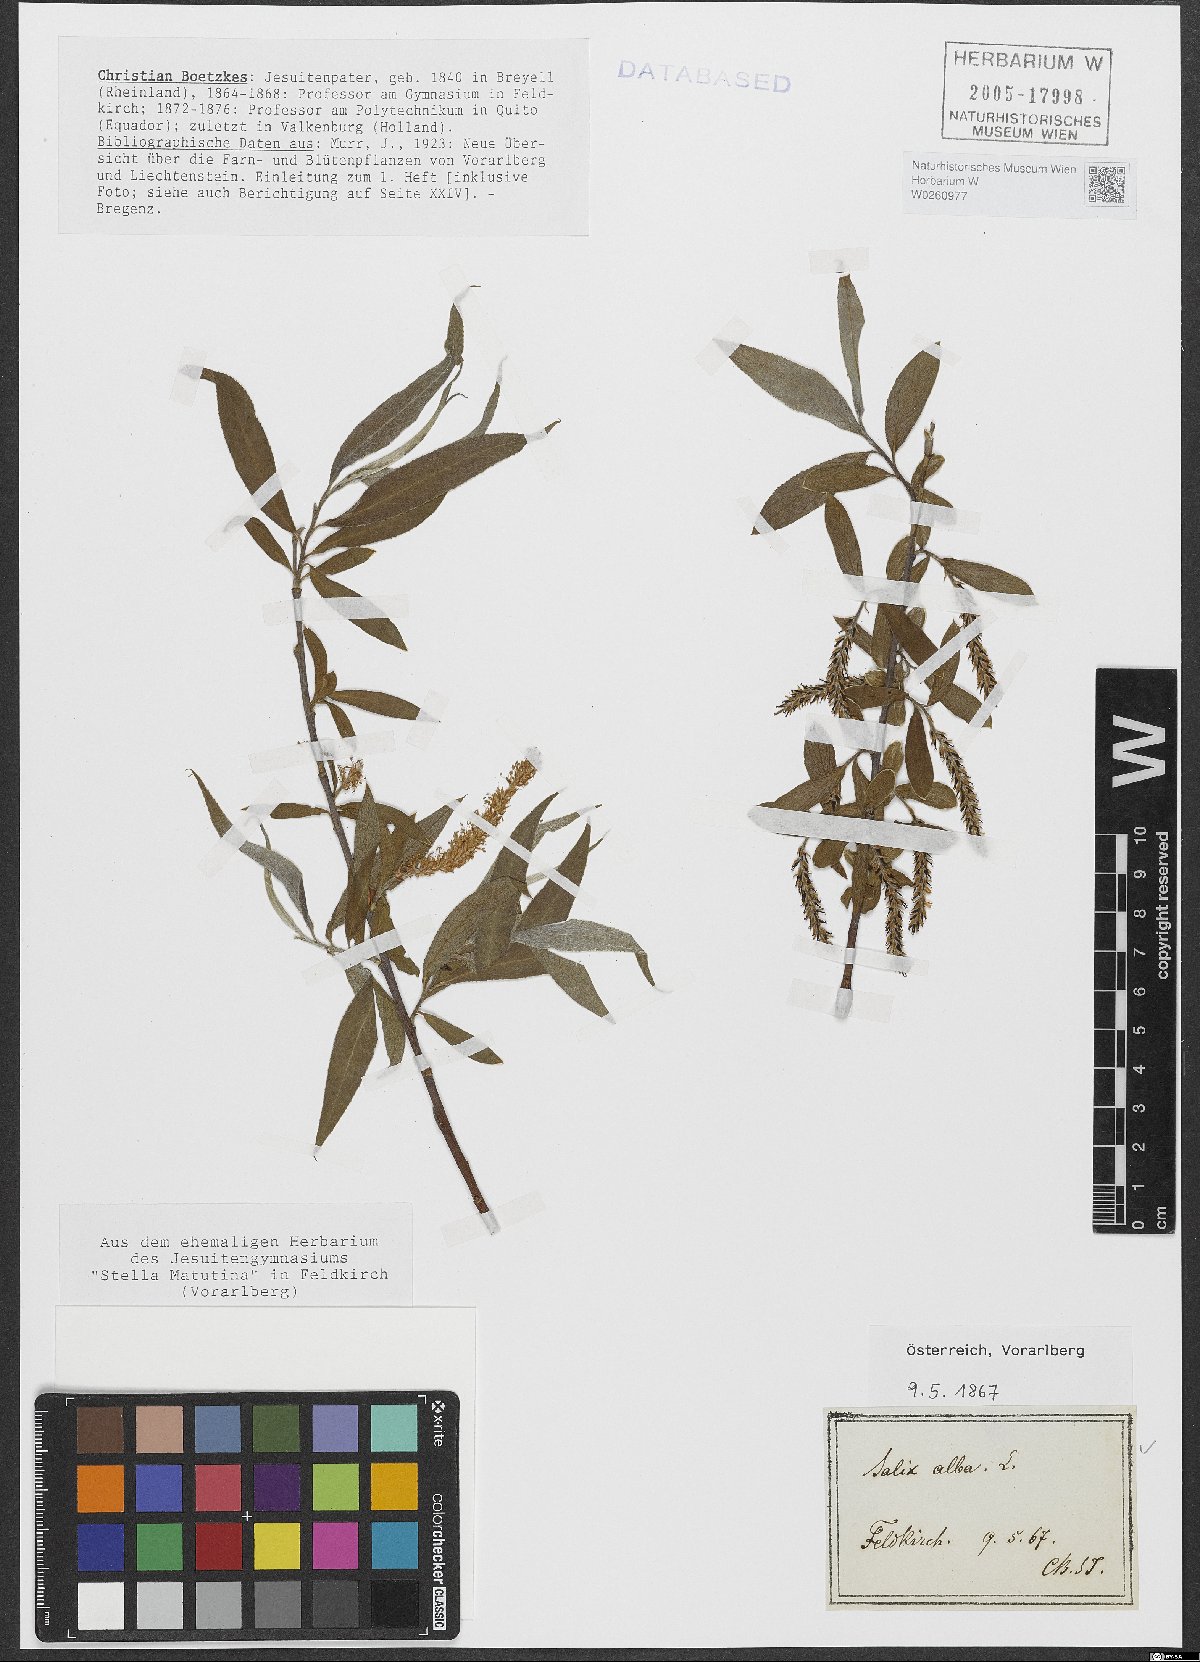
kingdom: Plantae
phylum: Tracheophyta
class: Magnoliopsida
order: Malpighiales
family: Salicaceae
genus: Salix
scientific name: Salix alba
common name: White willow
